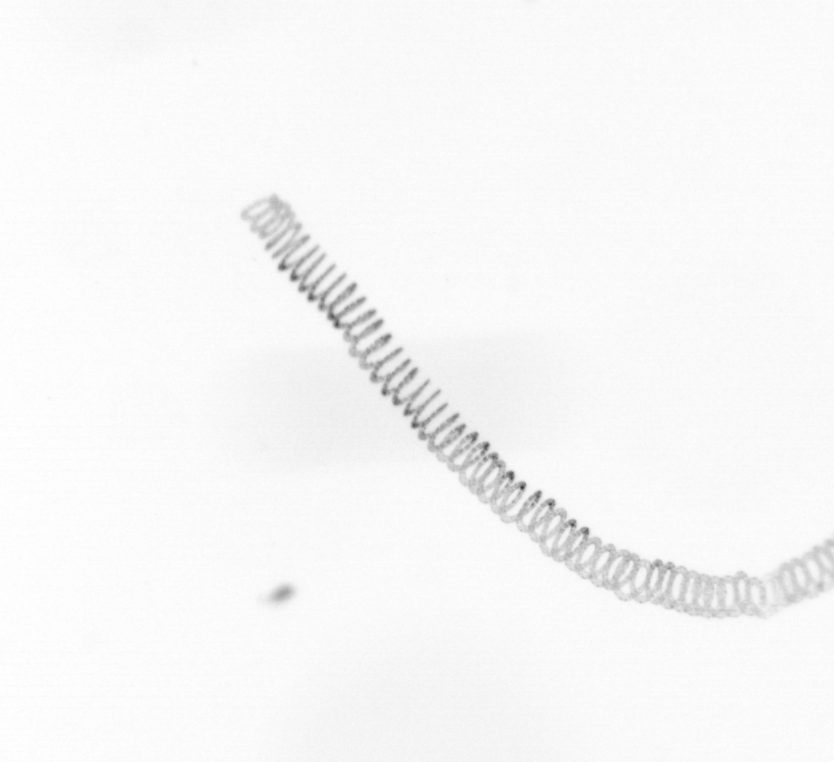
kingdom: Chromista
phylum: Ochrophyta
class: Bacillariophyceae
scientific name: Bacillariophyceae
